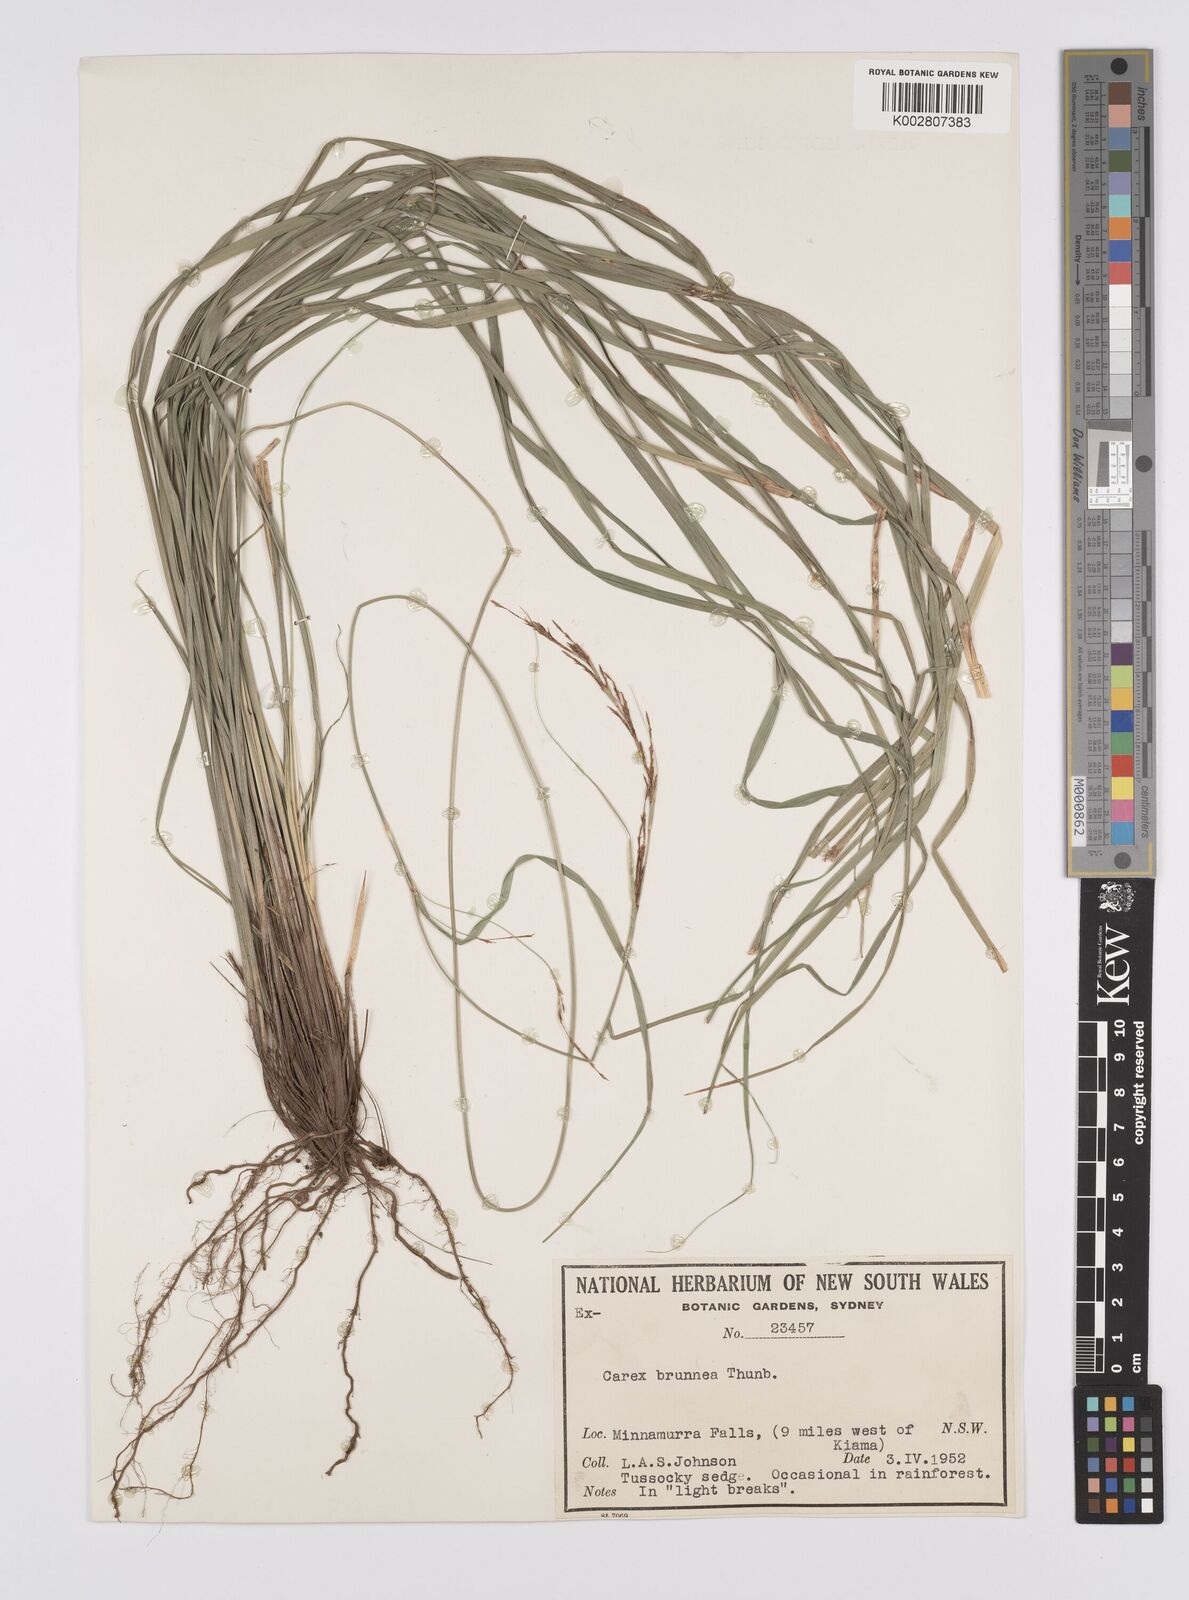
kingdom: Plantae
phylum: Tracheophyta
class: Liliopsida
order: Poales
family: Cyperaceae
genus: Carex
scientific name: Carex brunnea
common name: Greater brown sedge
